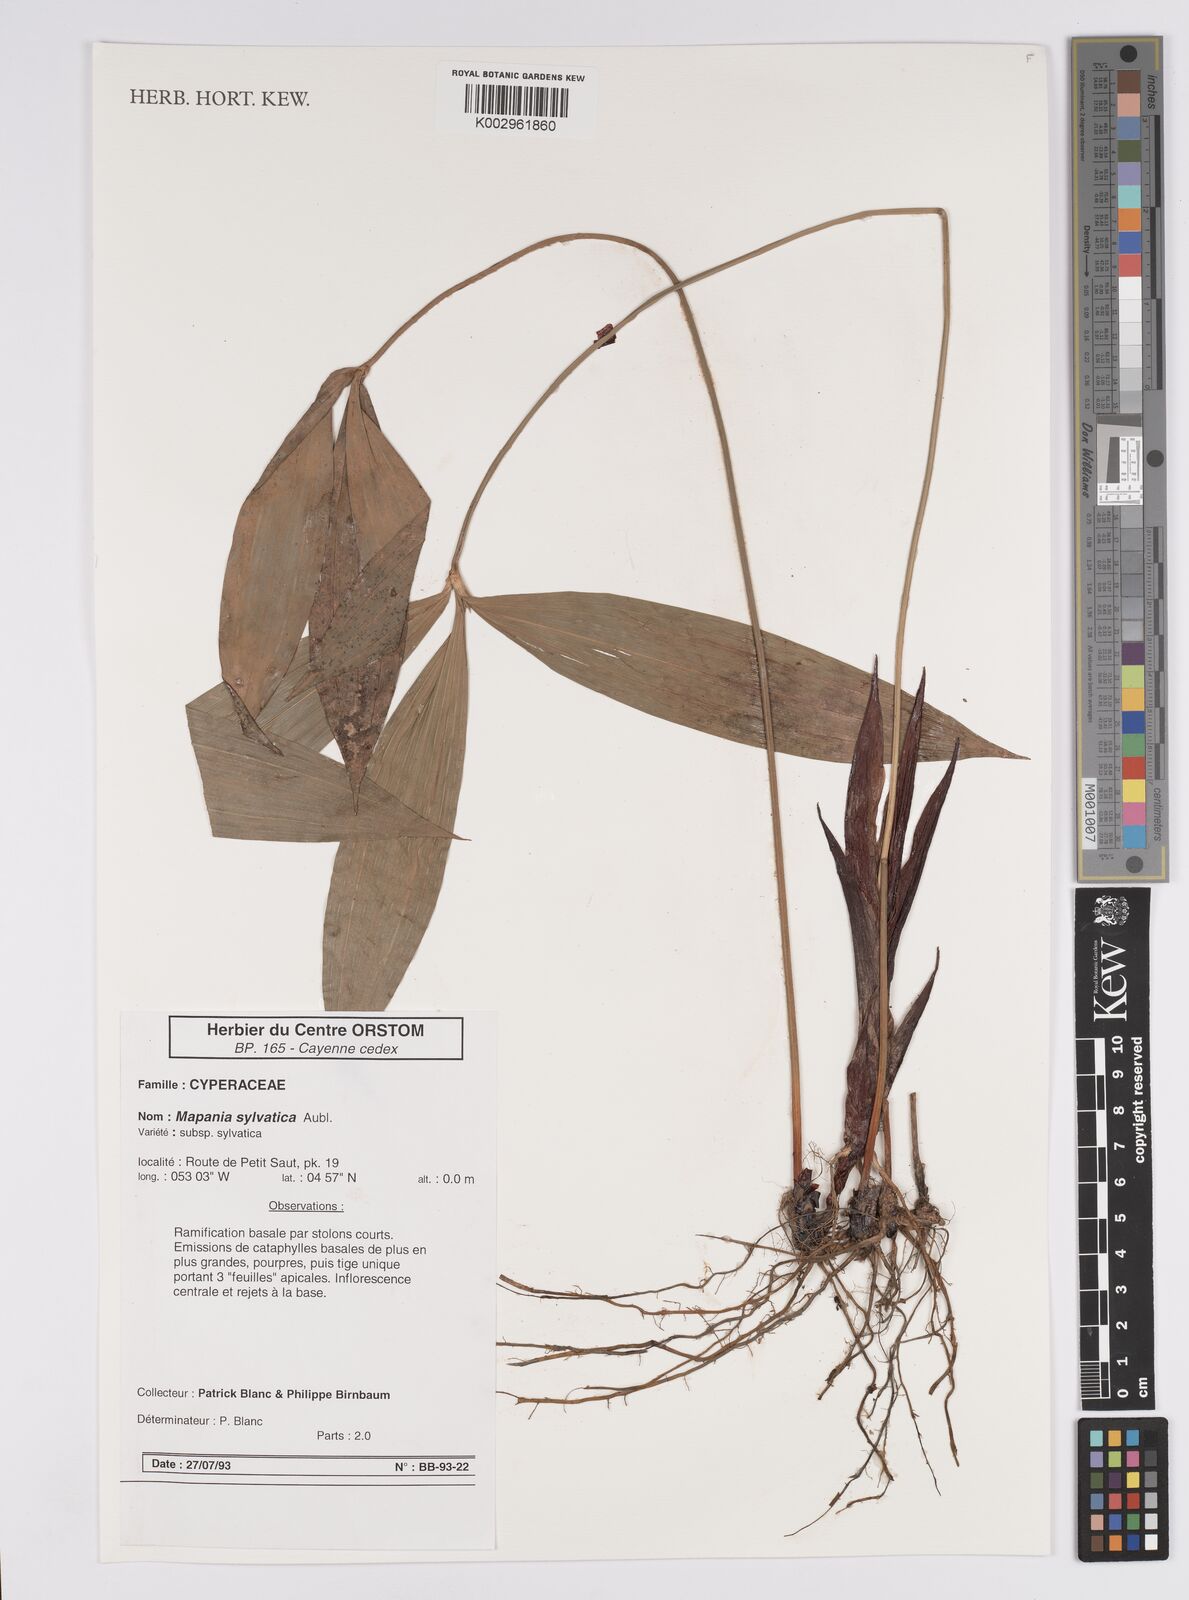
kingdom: Plantae
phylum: Tracheophyta
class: Liliopsida
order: Poales
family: Cyperaceae
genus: Mapania
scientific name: Mapania sylvatica
